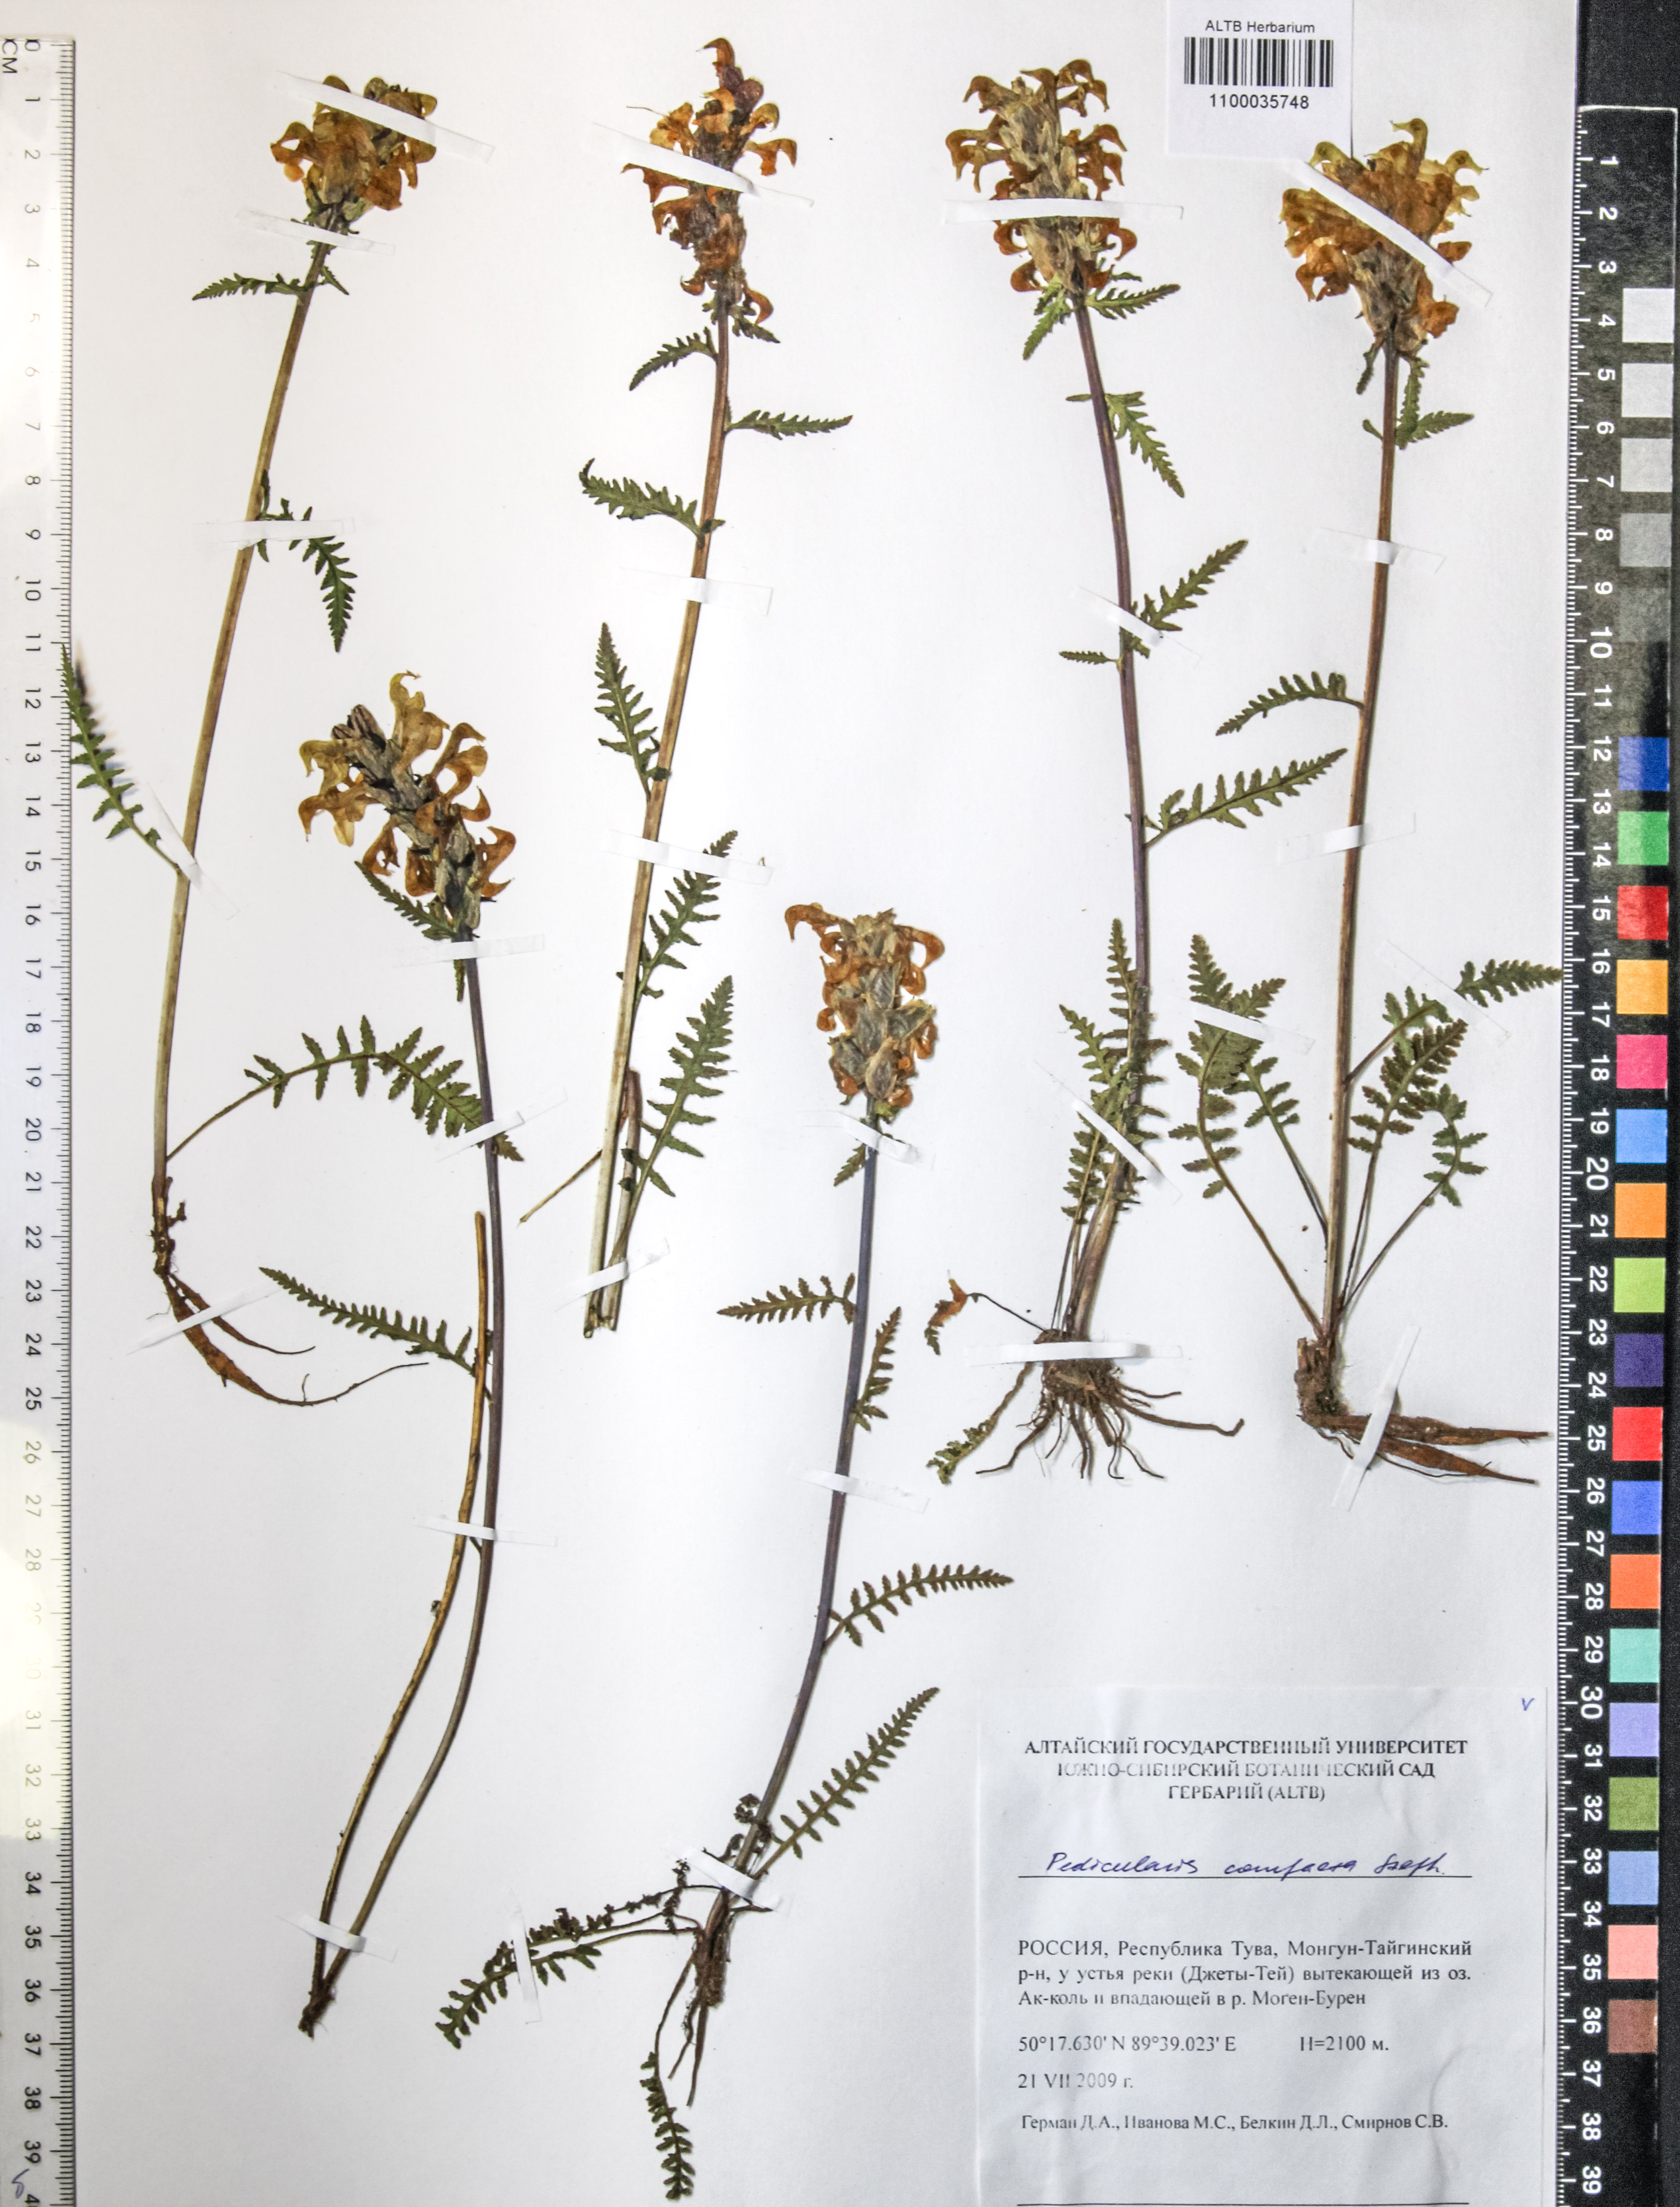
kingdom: Plantae
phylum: Tracheophyta
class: Magnoliopsida
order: Lamiales
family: Orobanchaceae
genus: Pedicularis
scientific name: Pedicularis compacta
